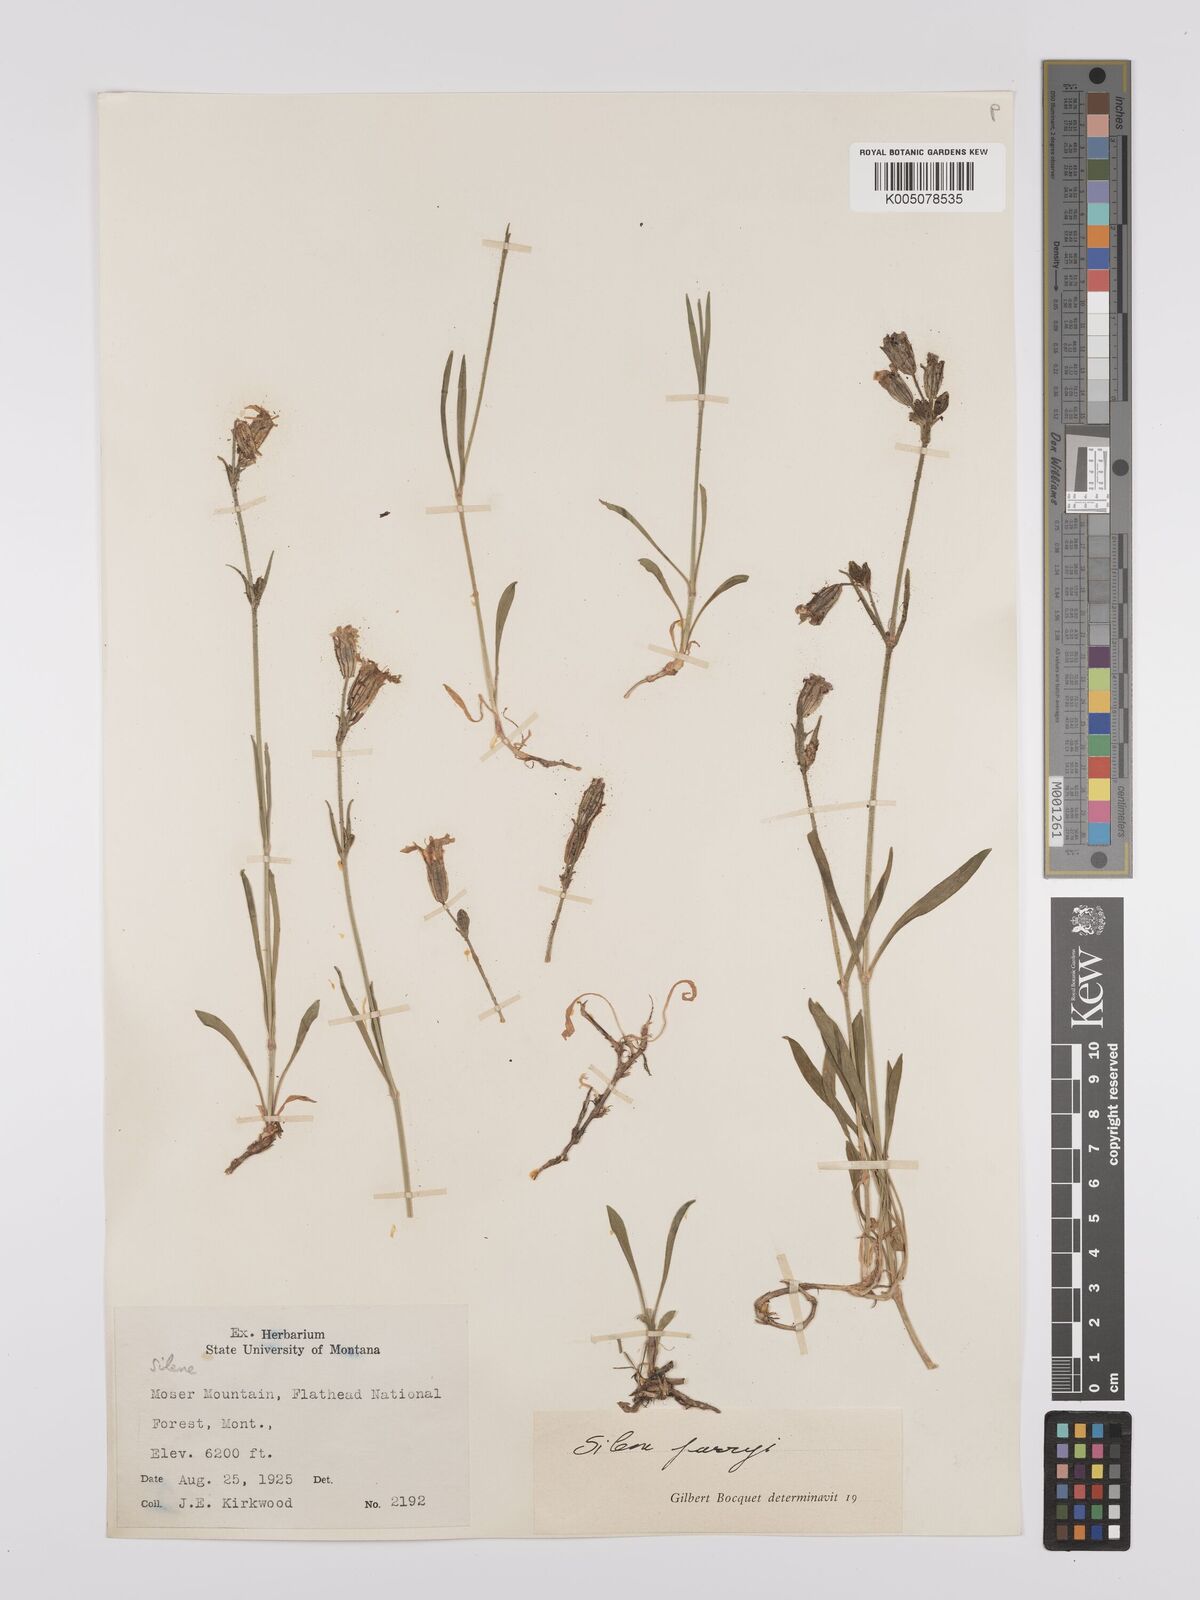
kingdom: Plantae
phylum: Tracheophyta
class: Magnoliopsida
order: Caryophyllales
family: Caryophyllaceae
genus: Silene
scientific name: Silene parryi
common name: Parry's campion
